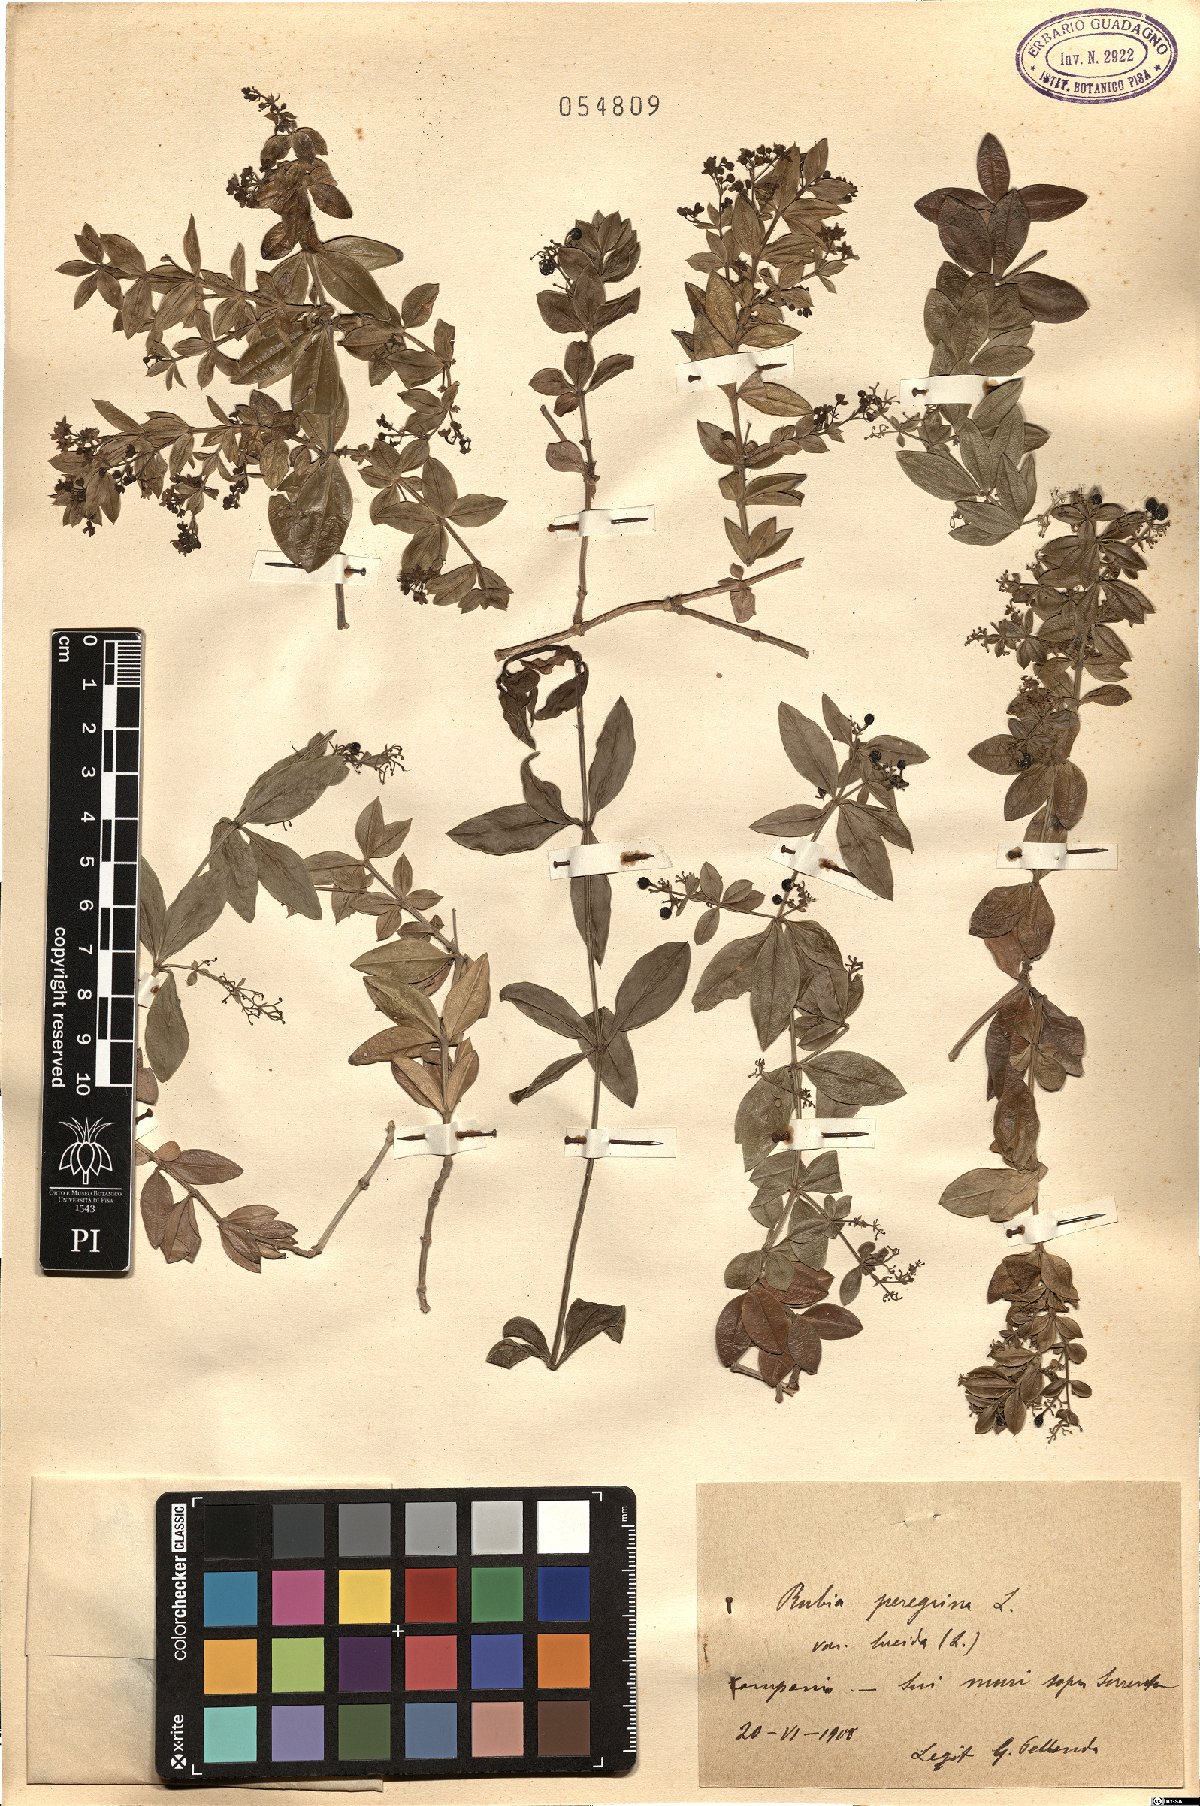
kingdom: Plantae
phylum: Tracheophyta
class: Magnoliopsida
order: Gentianales
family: Rubiaceae
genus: Rubia
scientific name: Rubia peregrina
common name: Wild madder
